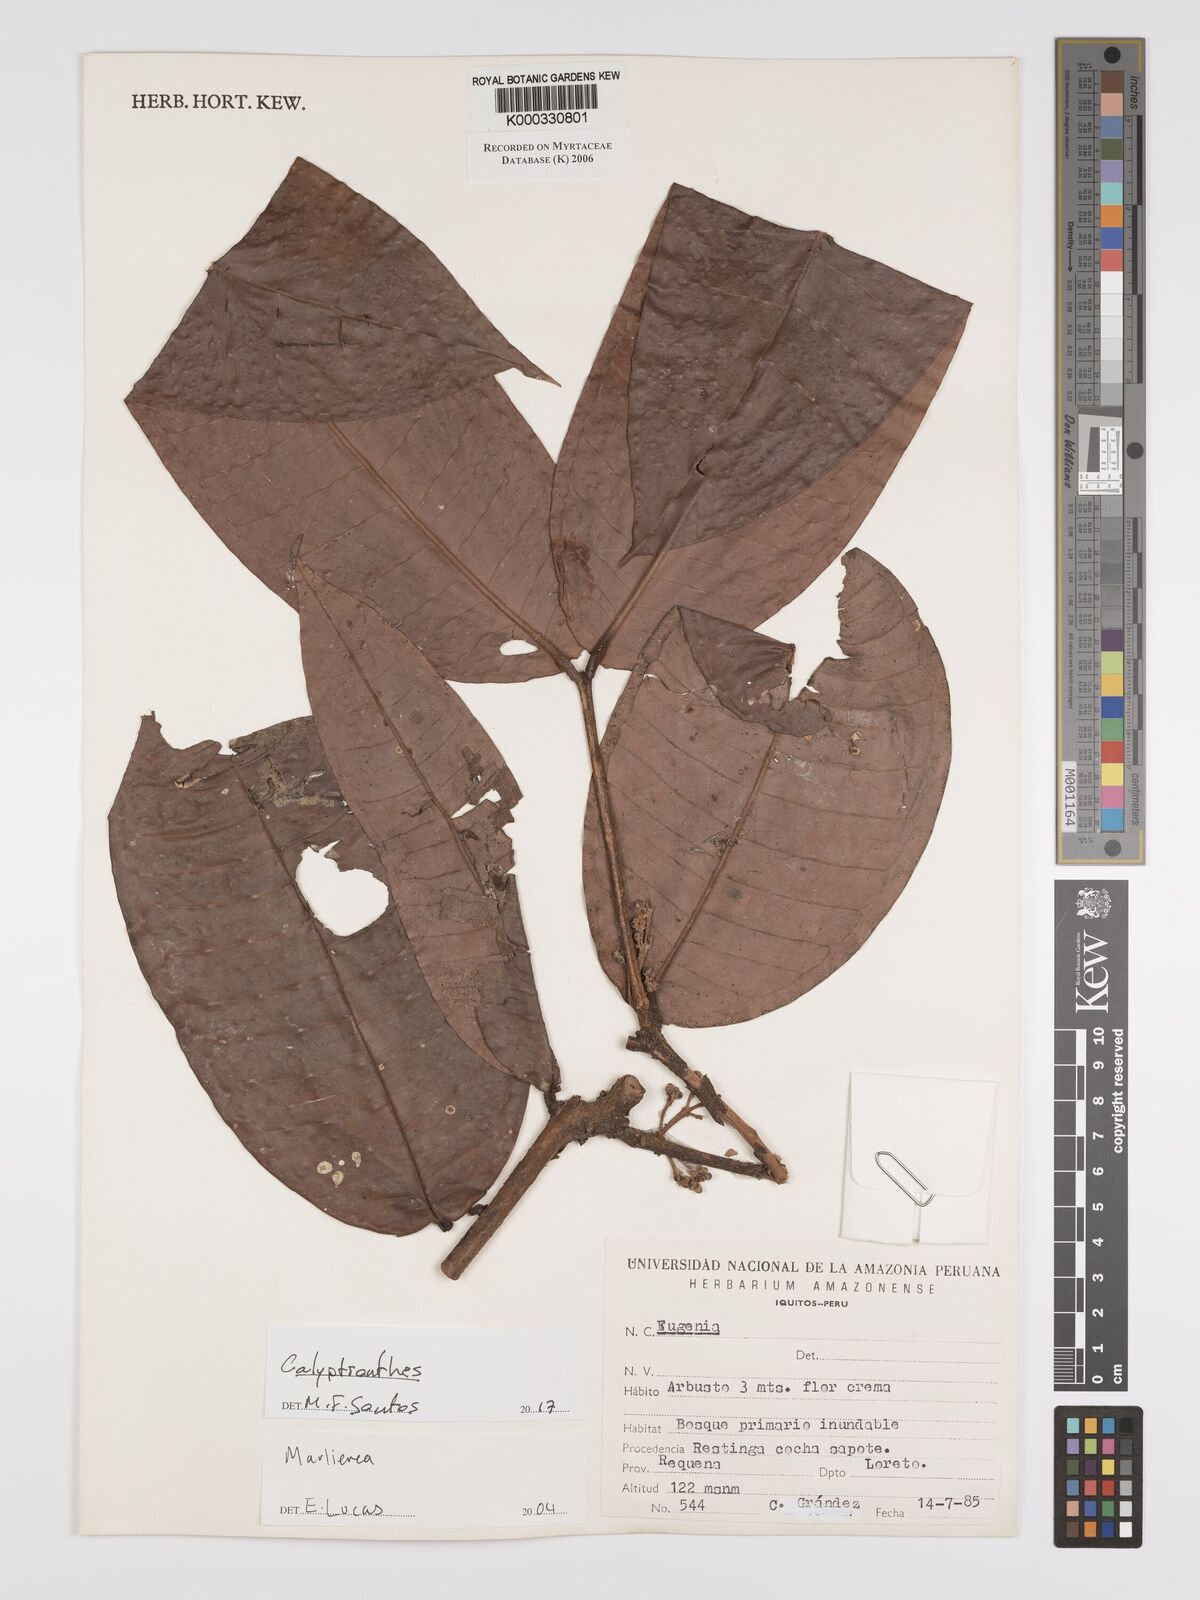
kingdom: Plantae
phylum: Tracheophyta
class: Magnoliopsida
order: Myrtales
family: Myrtaceae
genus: Marlierea
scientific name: Marlierea
